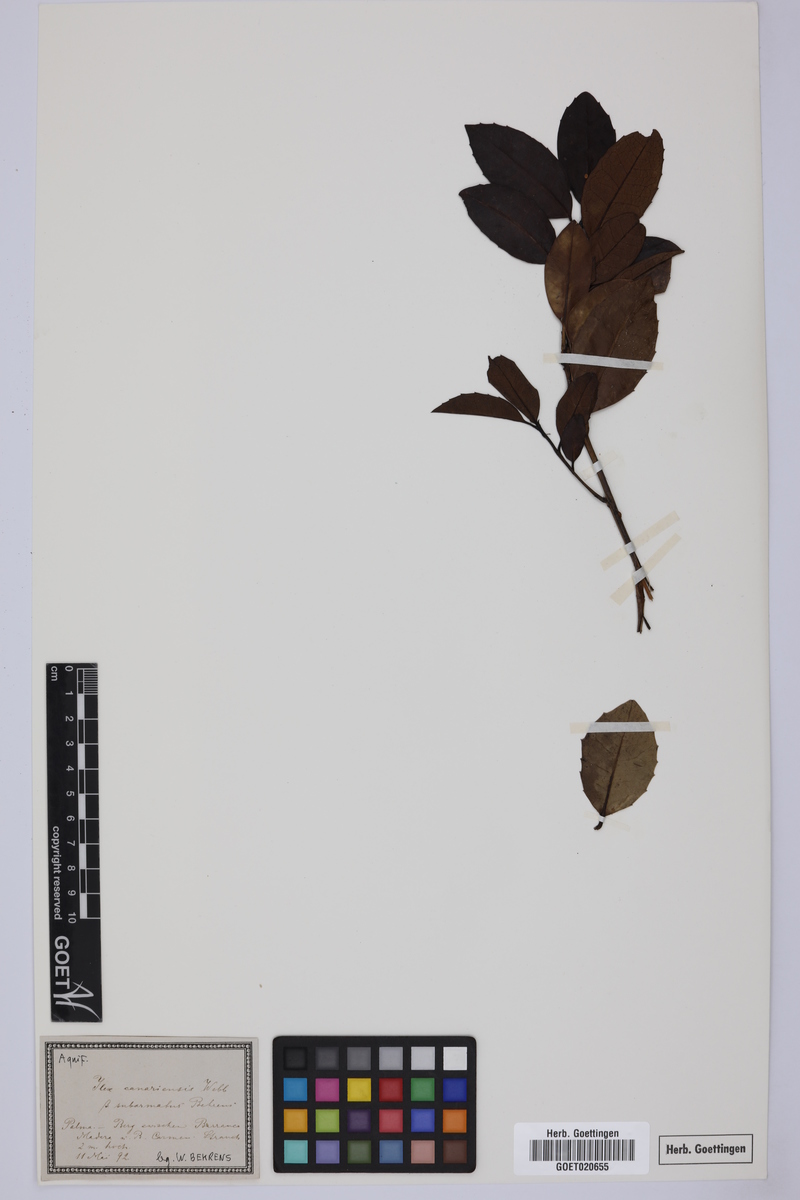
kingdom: Plantae
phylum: Tracheophyta
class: Magnoliopsida
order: Aquifoliales
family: Aquifoliaceae
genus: Ilex
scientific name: Ilex canariensis
